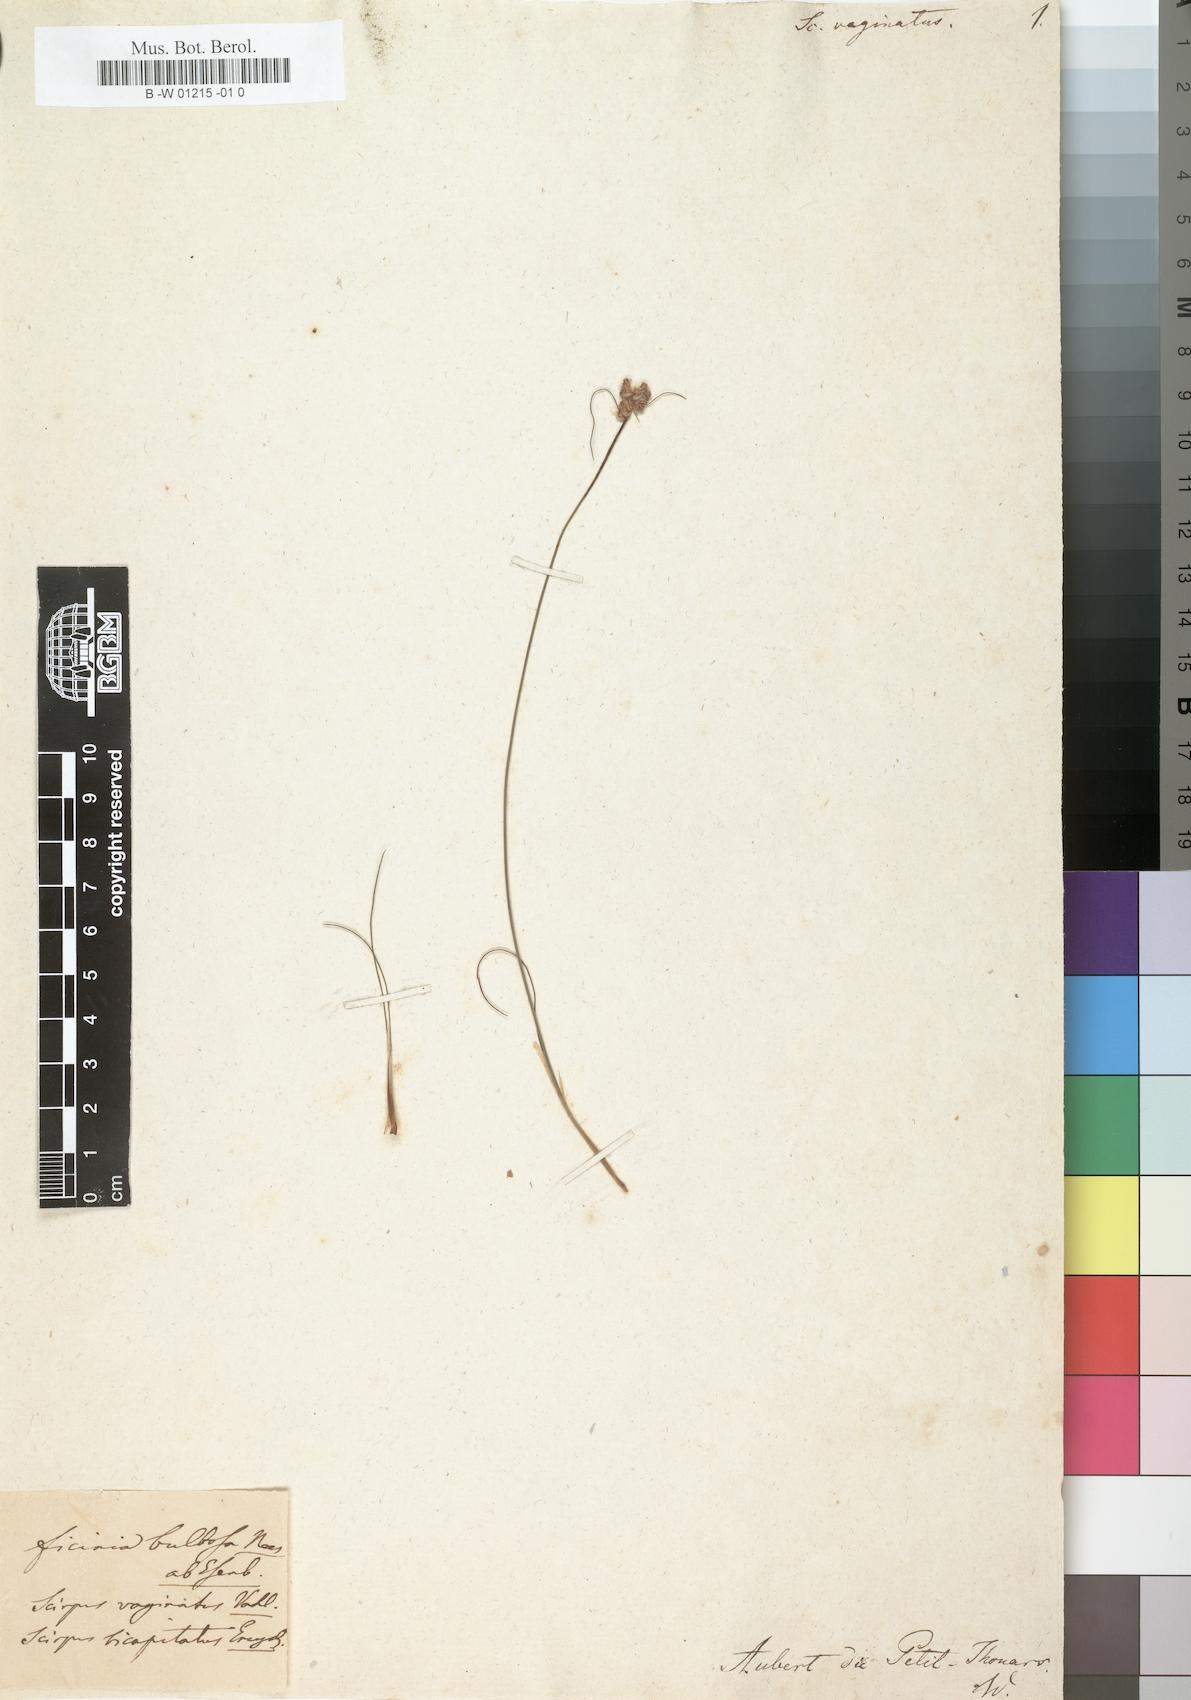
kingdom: Plantae
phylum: Tracheophyta
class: Liliopsida
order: Poales
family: Cyperaceae
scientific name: Cyperaceae
